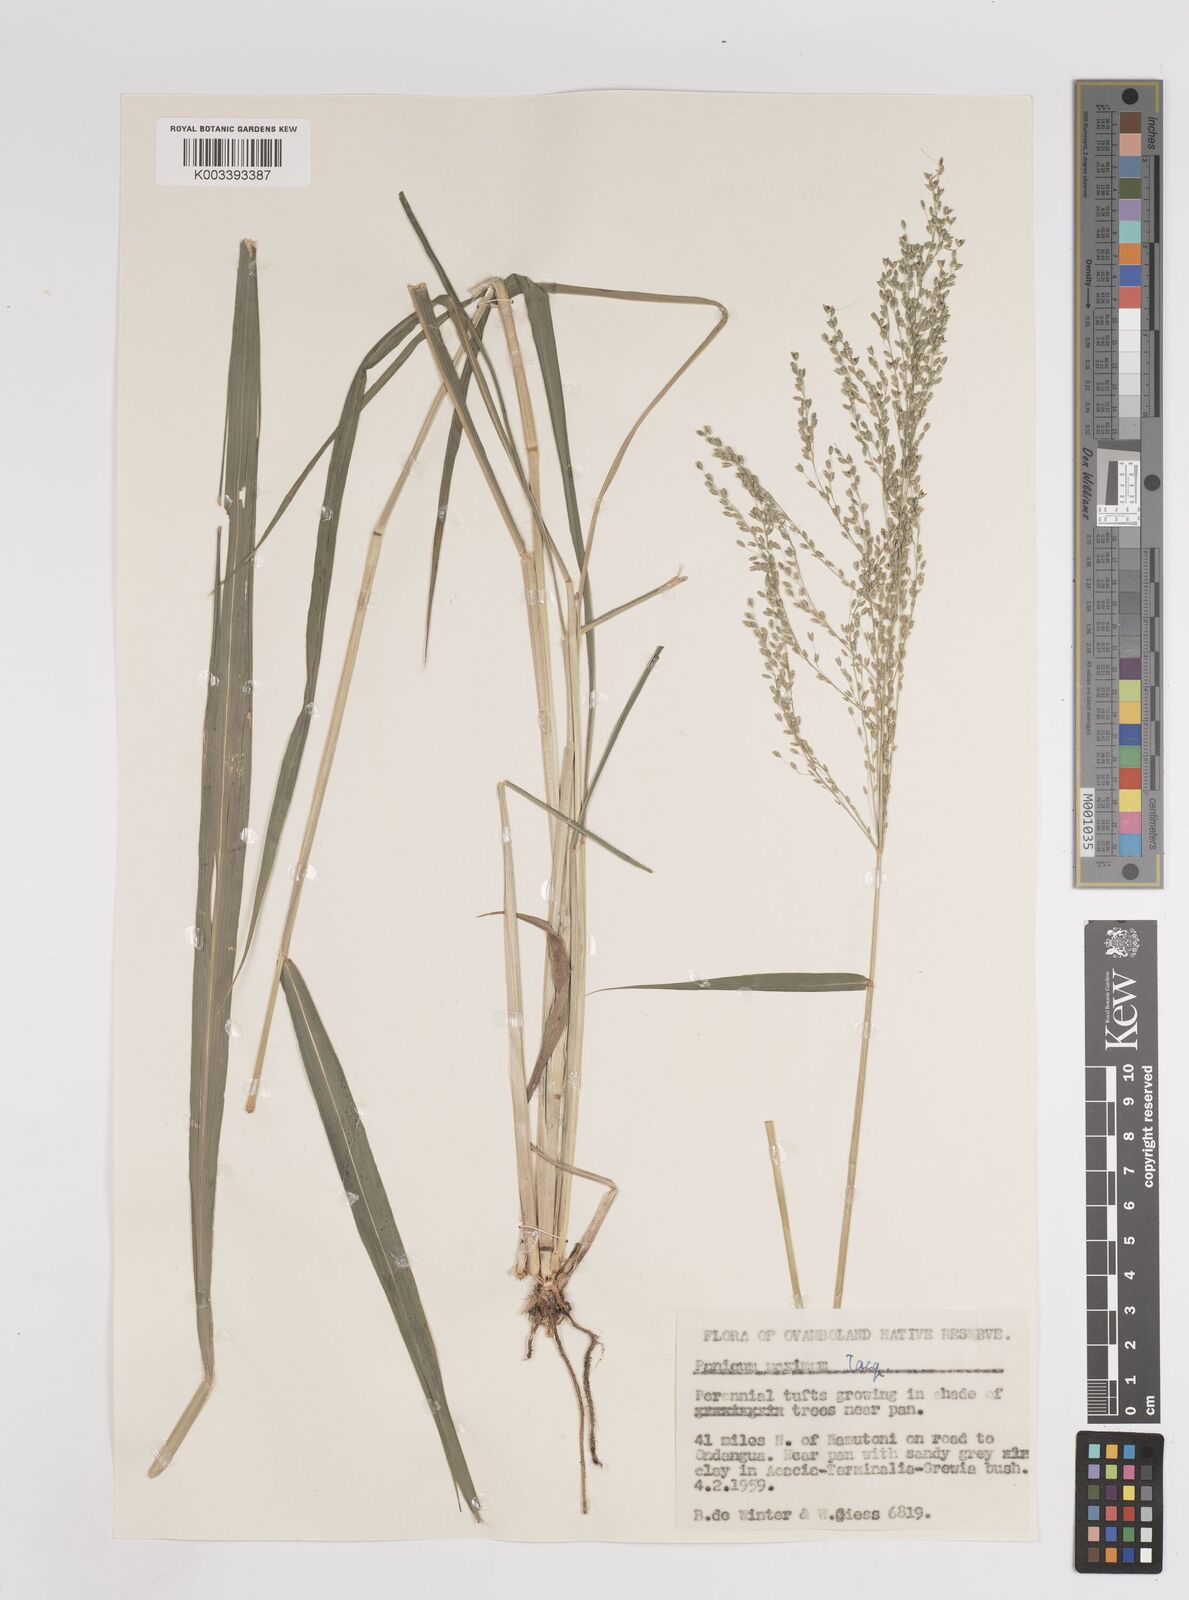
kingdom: Plantae
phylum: Tracheophyta
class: Liliopsida
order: Poales
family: Poaceae
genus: Megathyrsus
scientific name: Megathyrsus maximus
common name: Guineagrass
